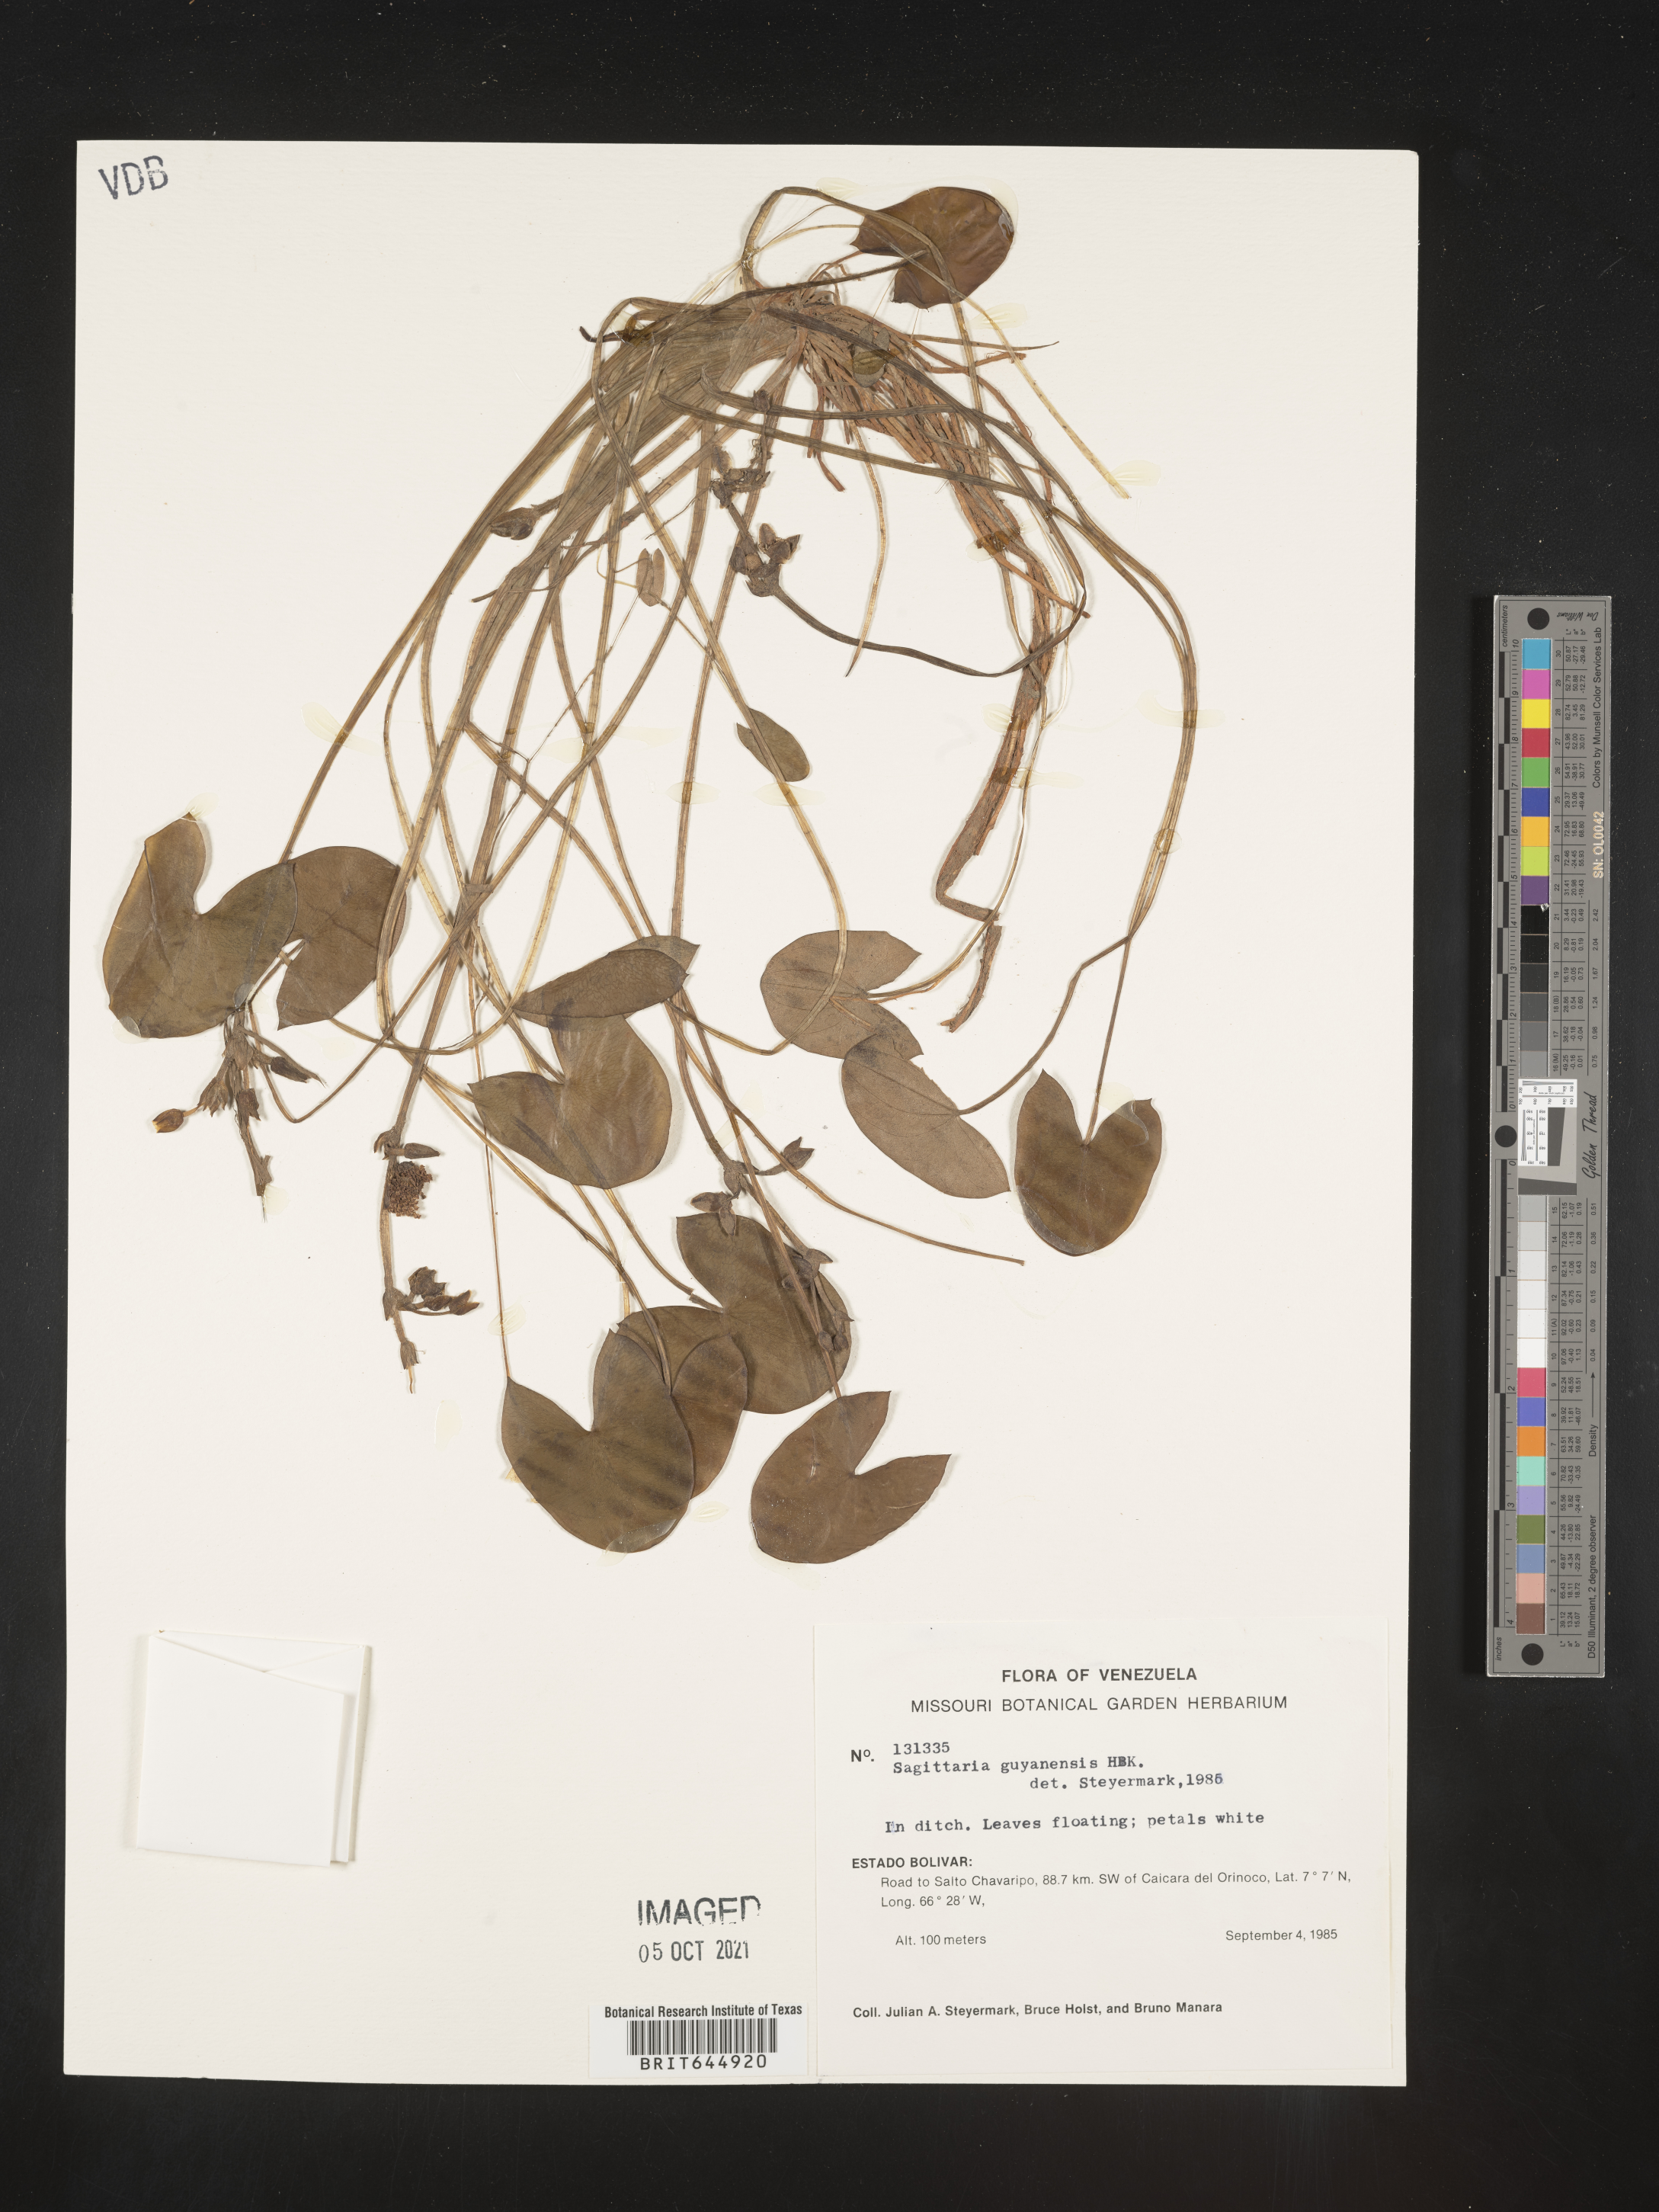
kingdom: Plantae
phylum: Tracheophyta
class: Liliopsida
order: Alismatales
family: Alismataceae
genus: Sagittaria
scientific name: Sagittaria guayanensis
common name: Guyanese arrowhead
